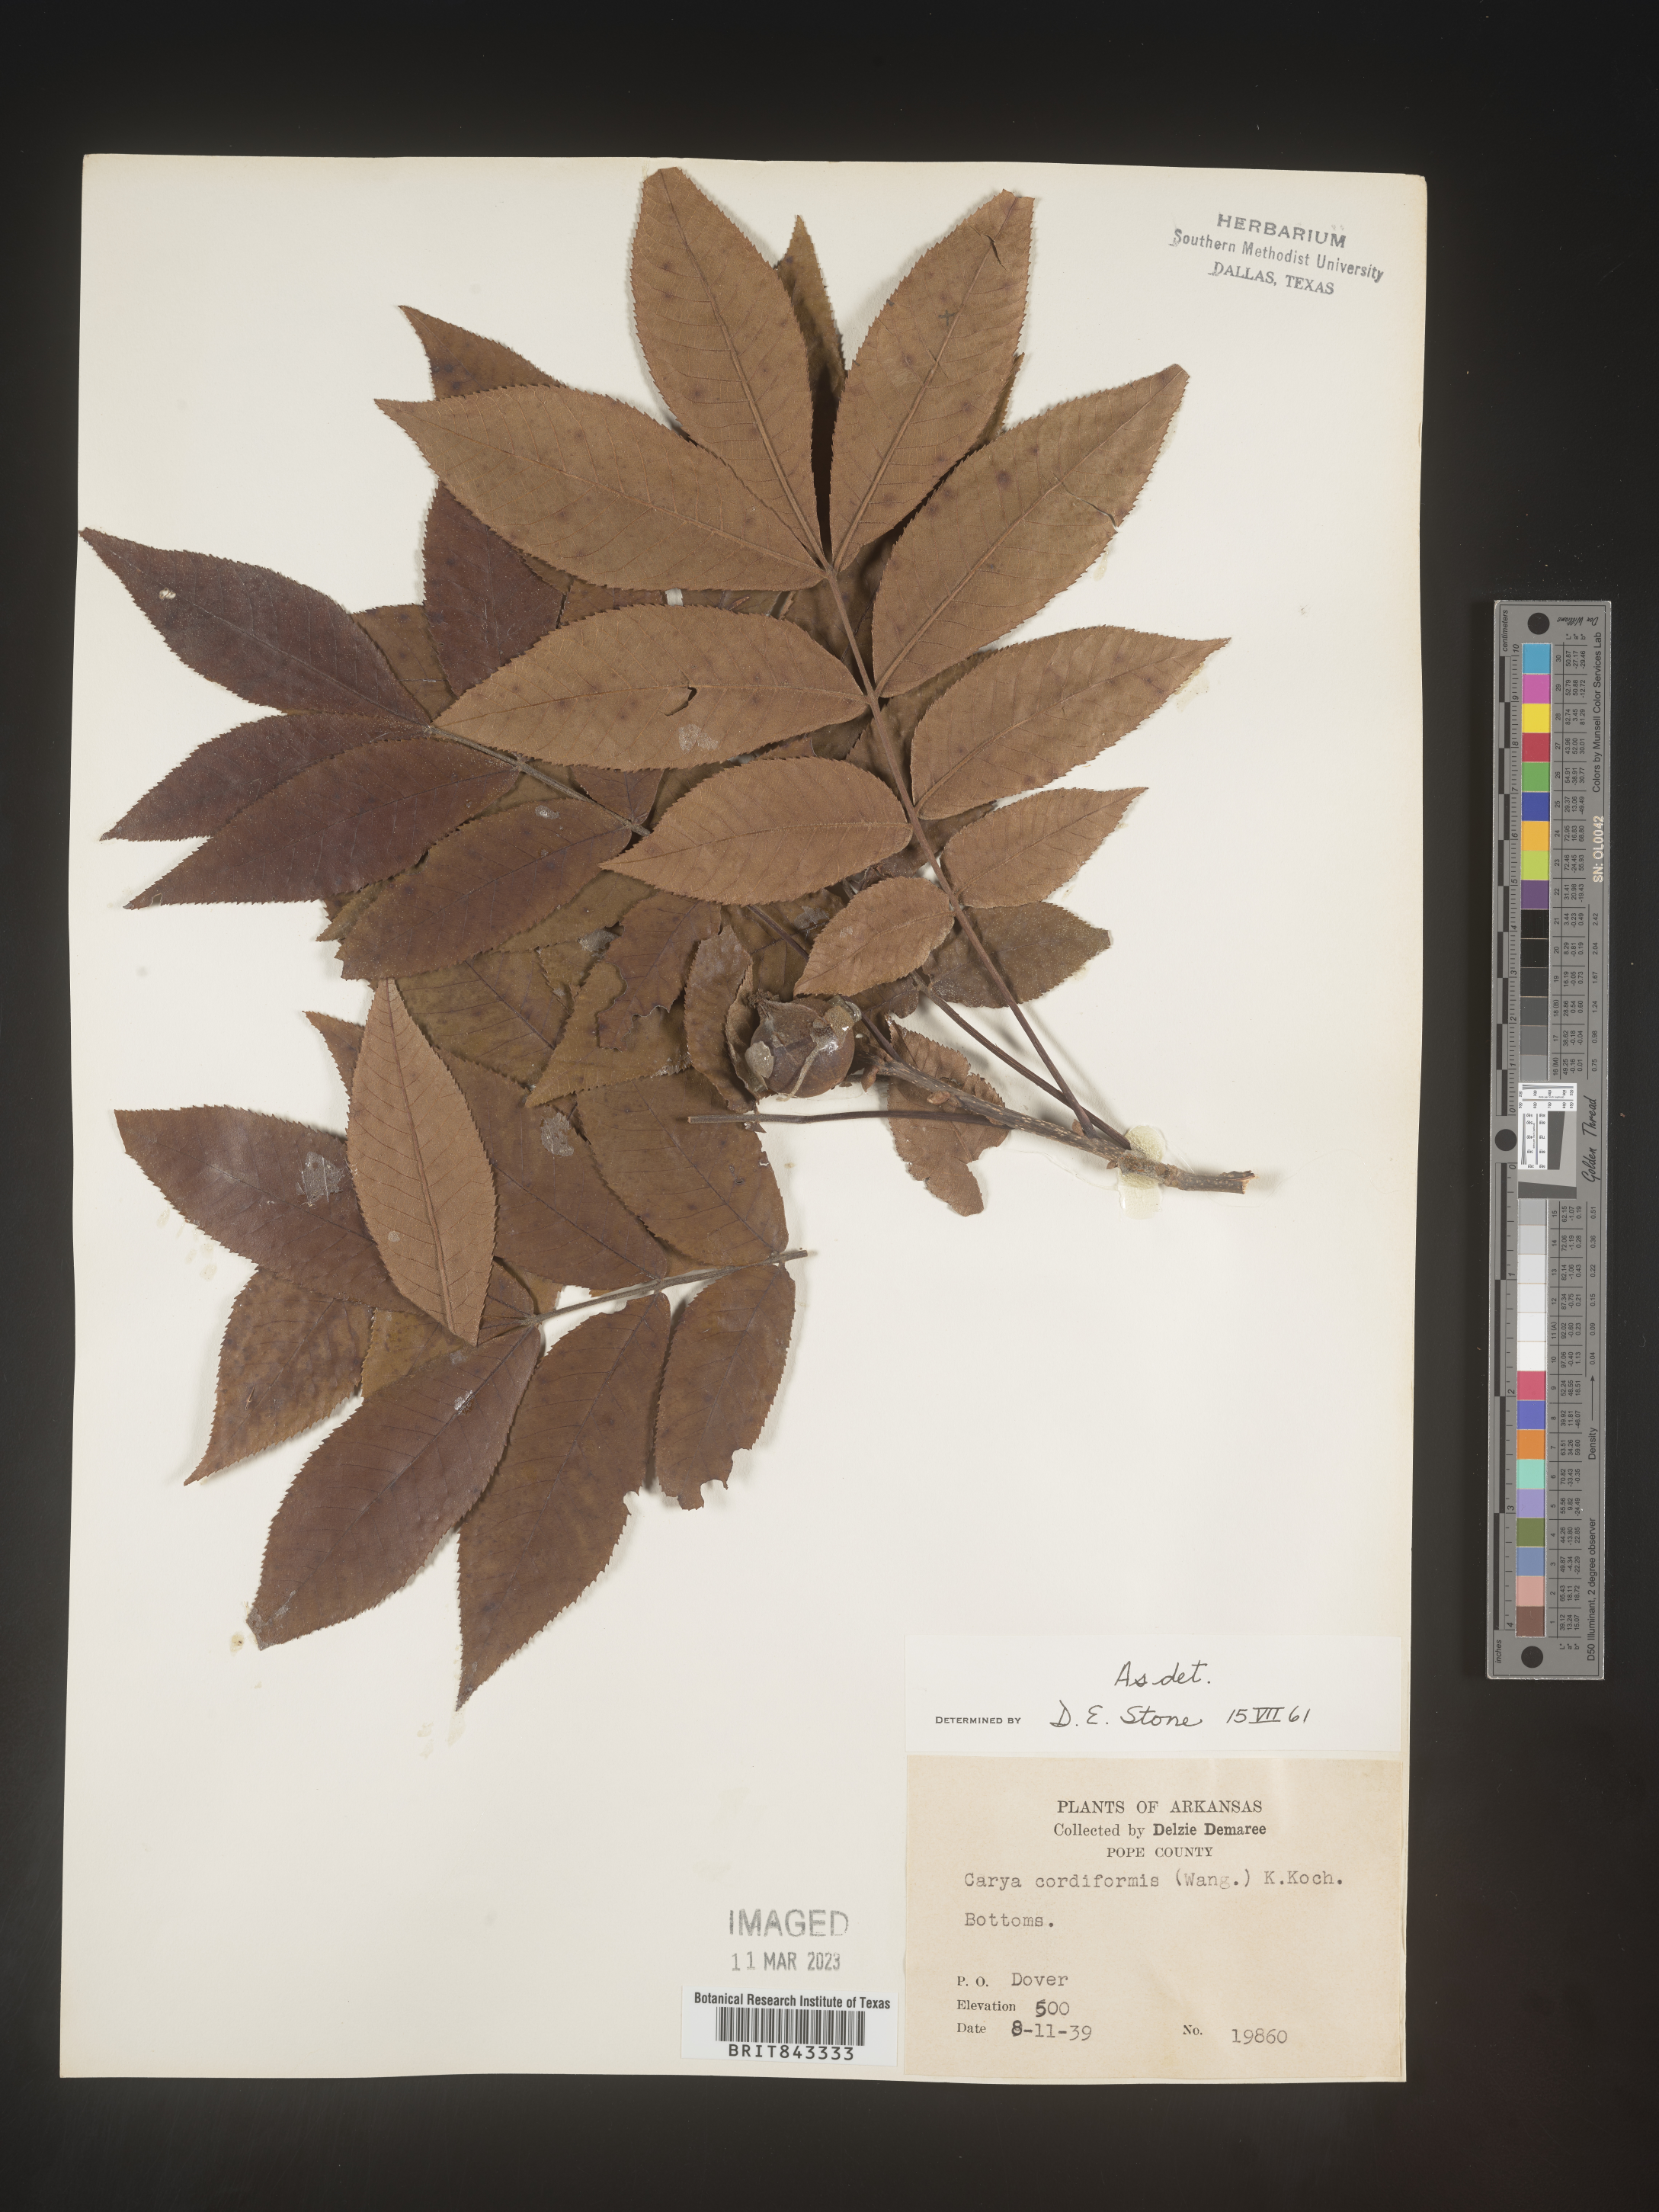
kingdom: Plantae
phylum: Tracheophyta
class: Magnoliopsida
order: Fagales
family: Juglandaceae
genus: Carya
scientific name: Carya cordiformis
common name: Bitternut hickory
